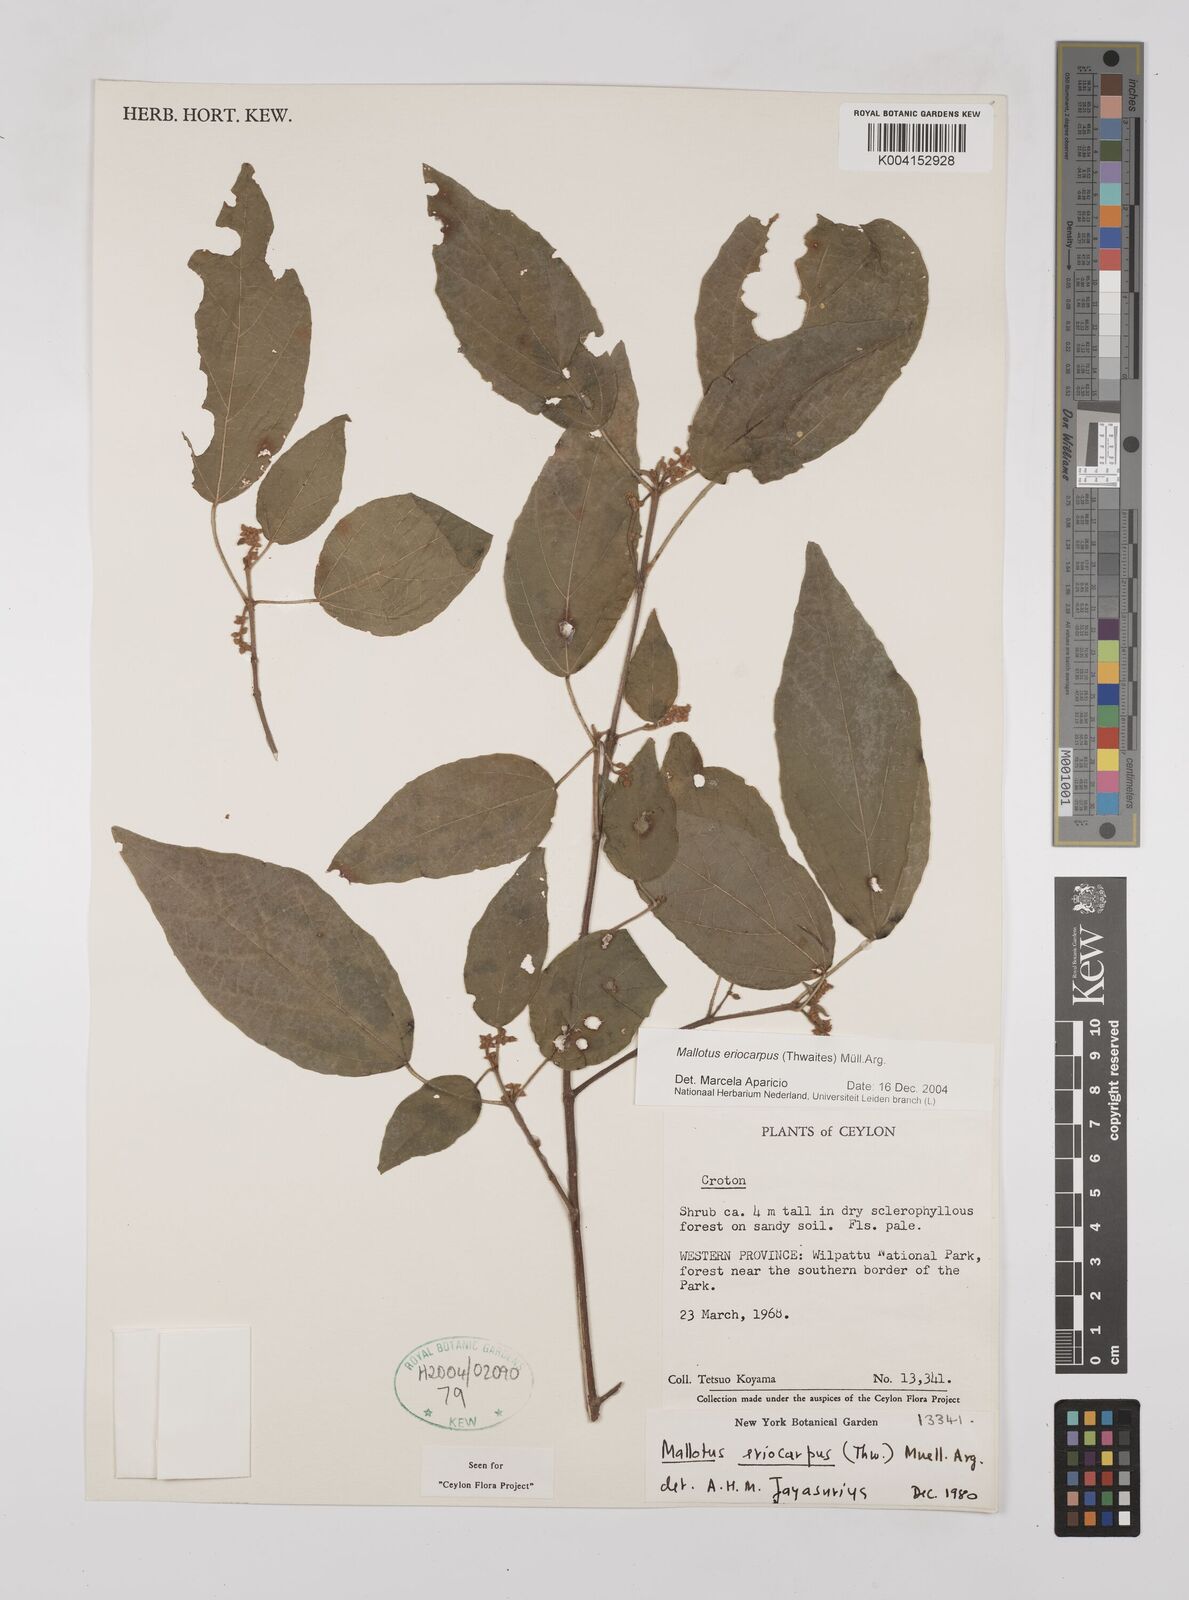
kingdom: Plantae
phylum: Tracheophyta
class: Magnoliopsida
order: Malpighiales
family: Euphorbiaceae
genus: Mallotus
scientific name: Mallotus eriocarpus
